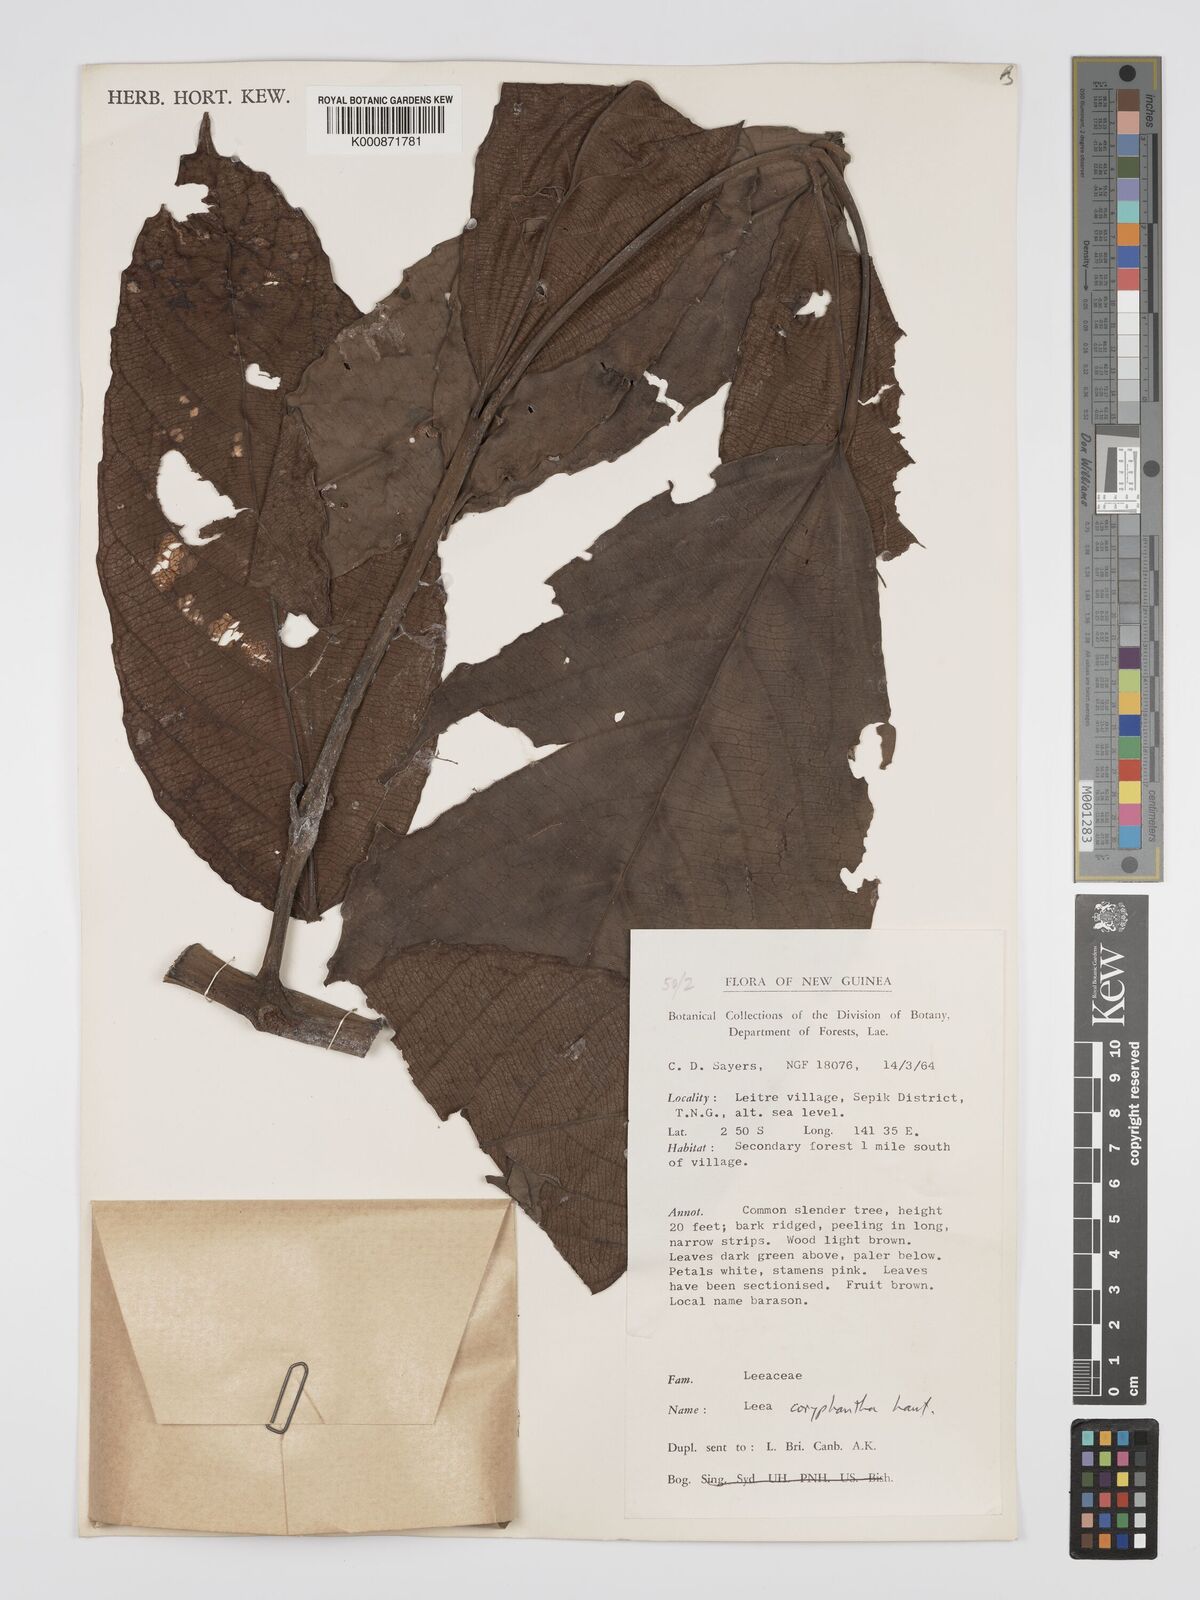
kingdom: Plantae
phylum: Tracheophyta
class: Magnoliopsida
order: Vitales
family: Vitaceae
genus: Leea
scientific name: Leea coryphantha
